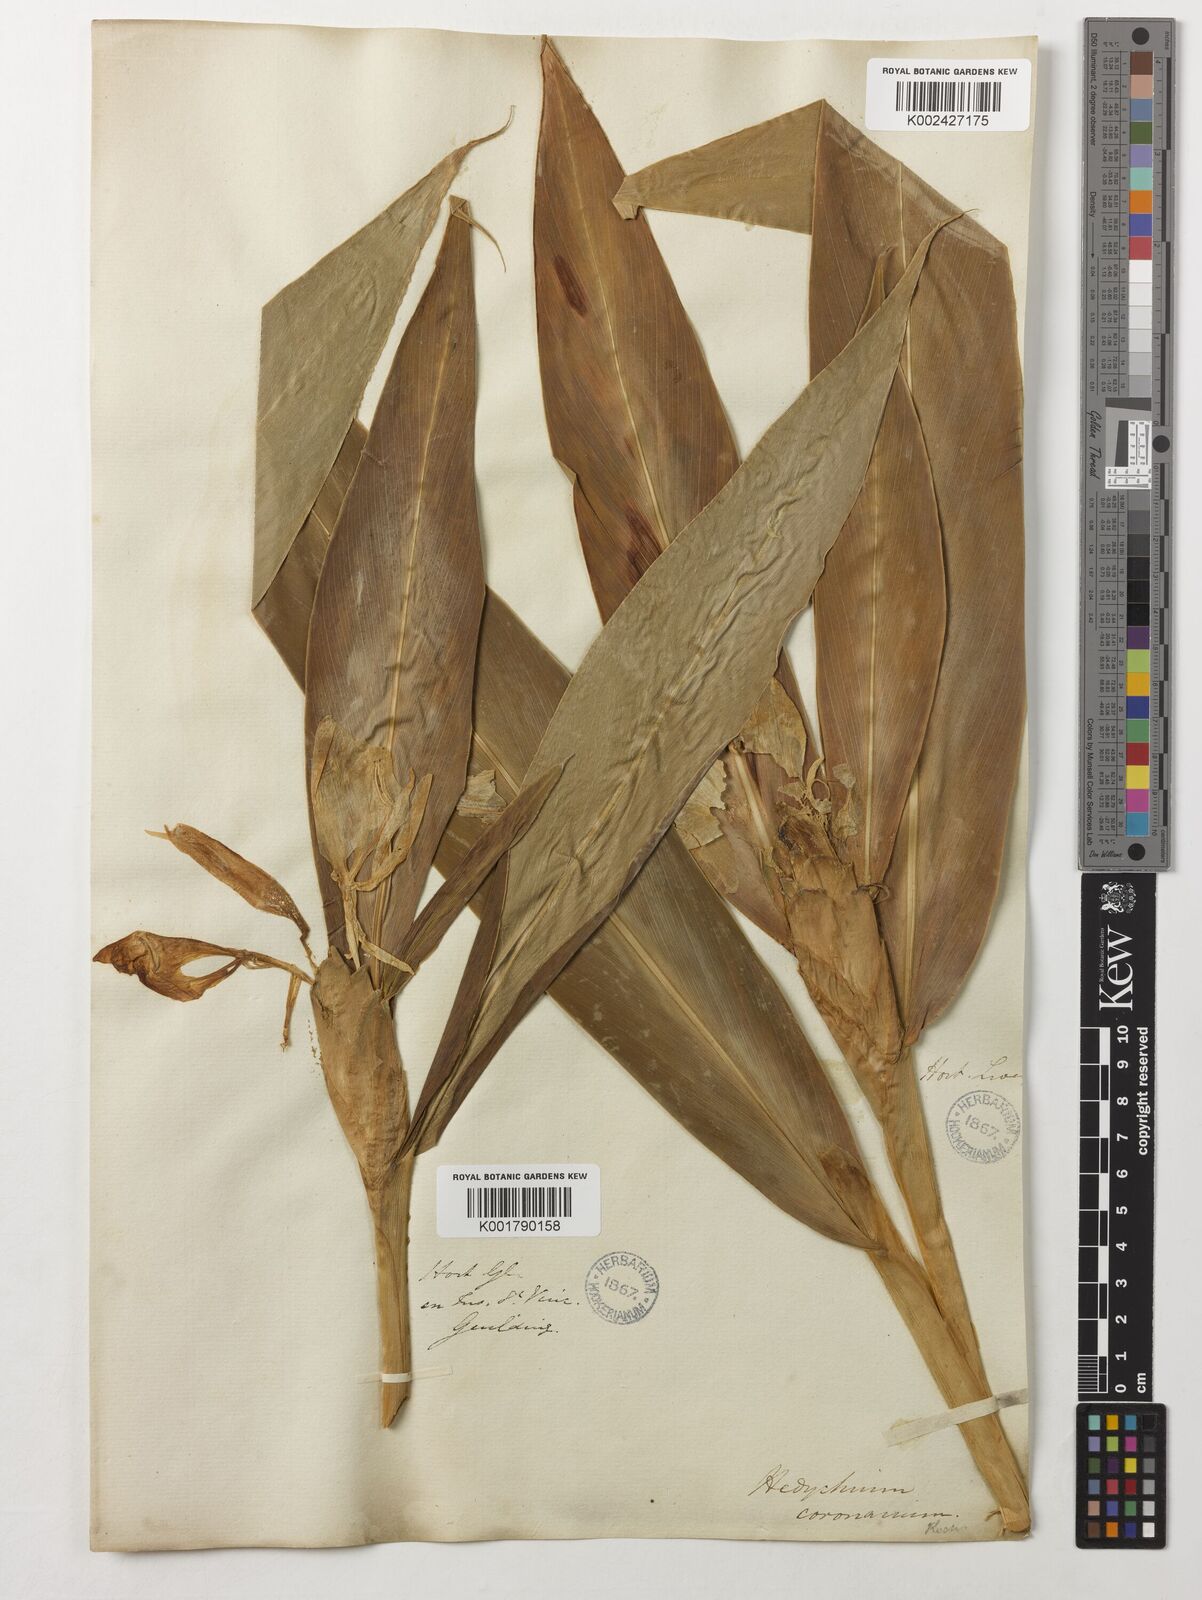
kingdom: Plantae
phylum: Tracheophyta
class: Liliopsida
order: Zingiberales
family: Zingiberaceae
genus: Hedychium
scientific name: Hedychium coronarium
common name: White garland-lily
